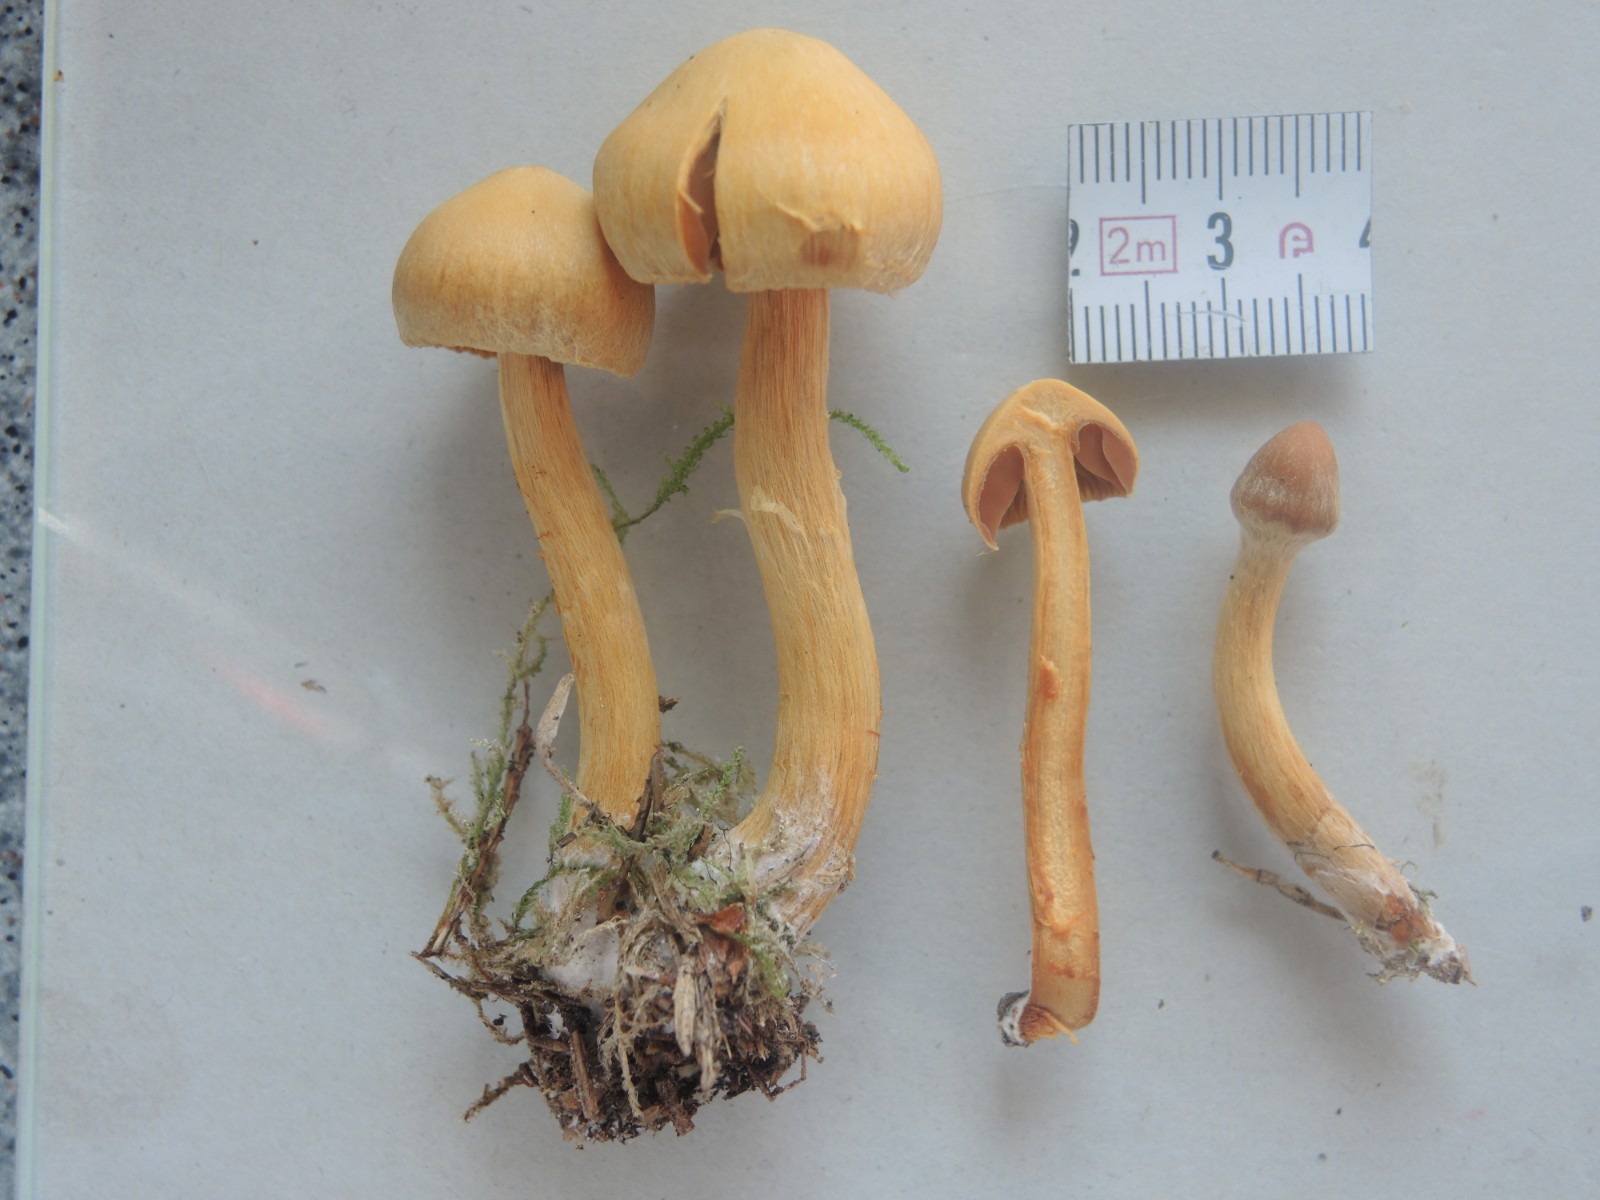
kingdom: Fungi
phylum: Basidiomycota
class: Agaricomycetes
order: Agaricales
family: Cortinariaceae
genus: Cortinarius
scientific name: Cortinarius gentilis
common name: bæltet slørhat
